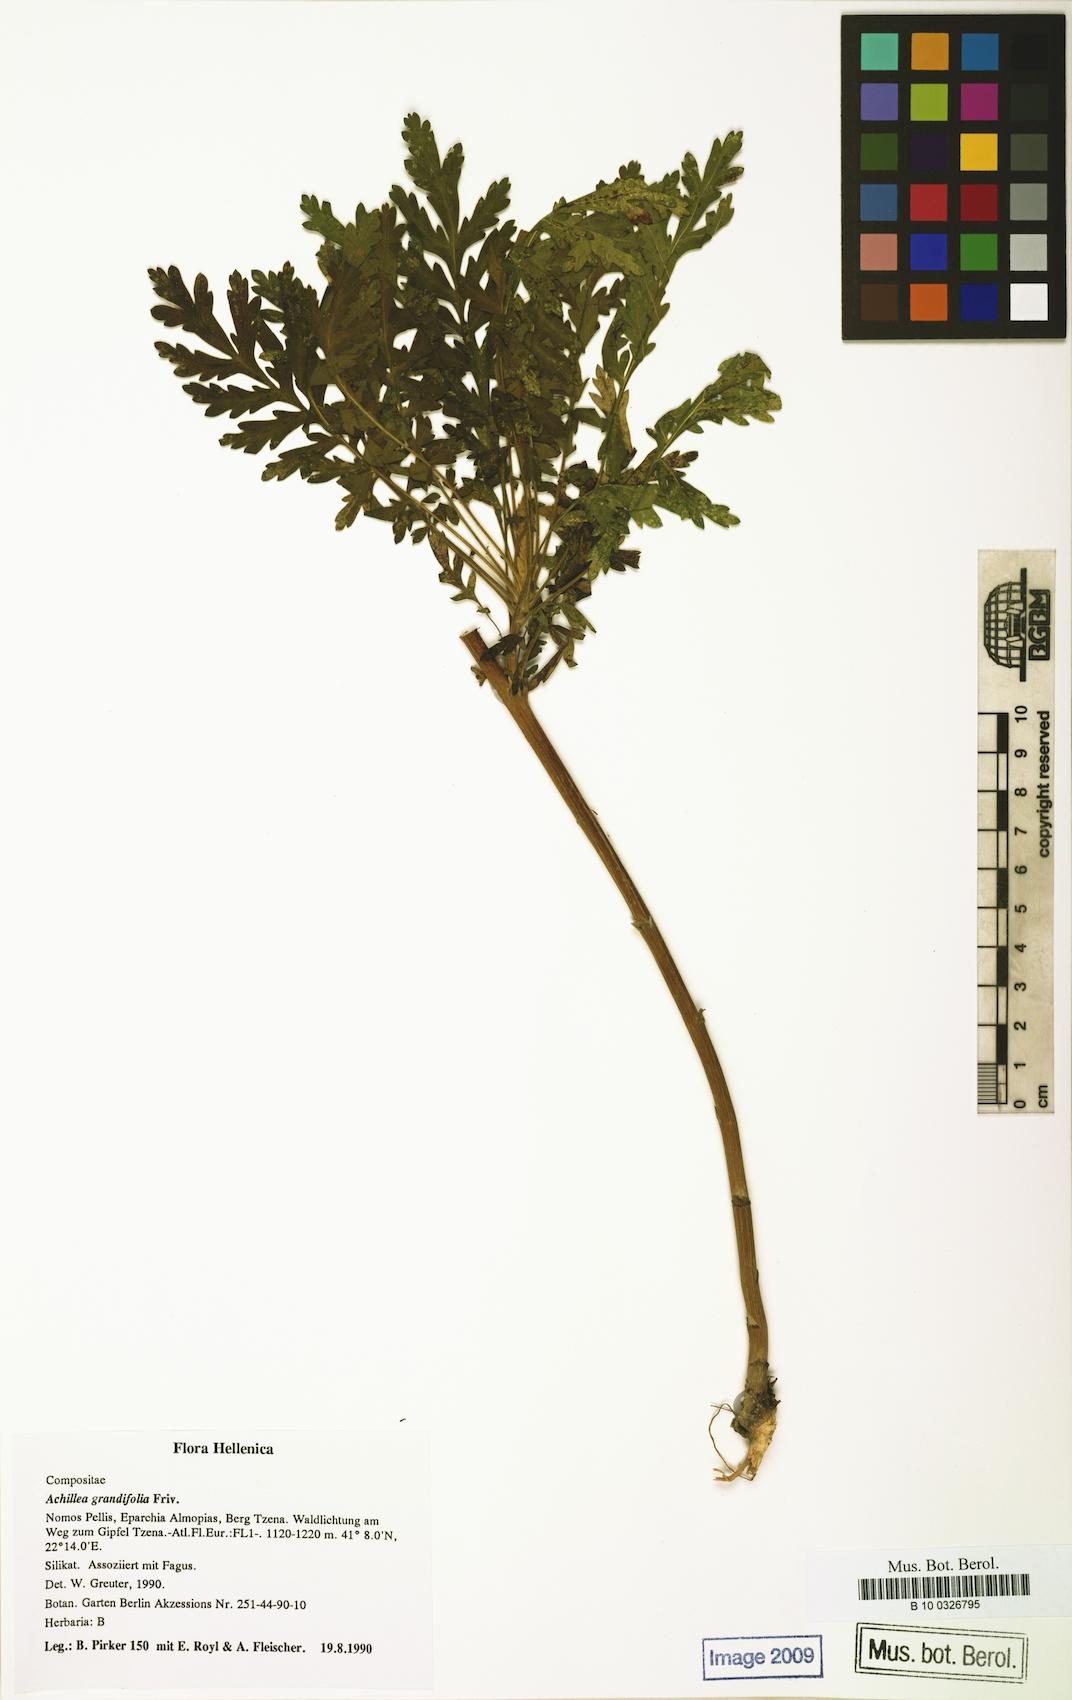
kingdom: Plantae
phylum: Tracheophyta
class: Magnoliopsida
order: Asterales
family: Asteraceae
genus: Achillea
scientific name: Achillea grandifolia
